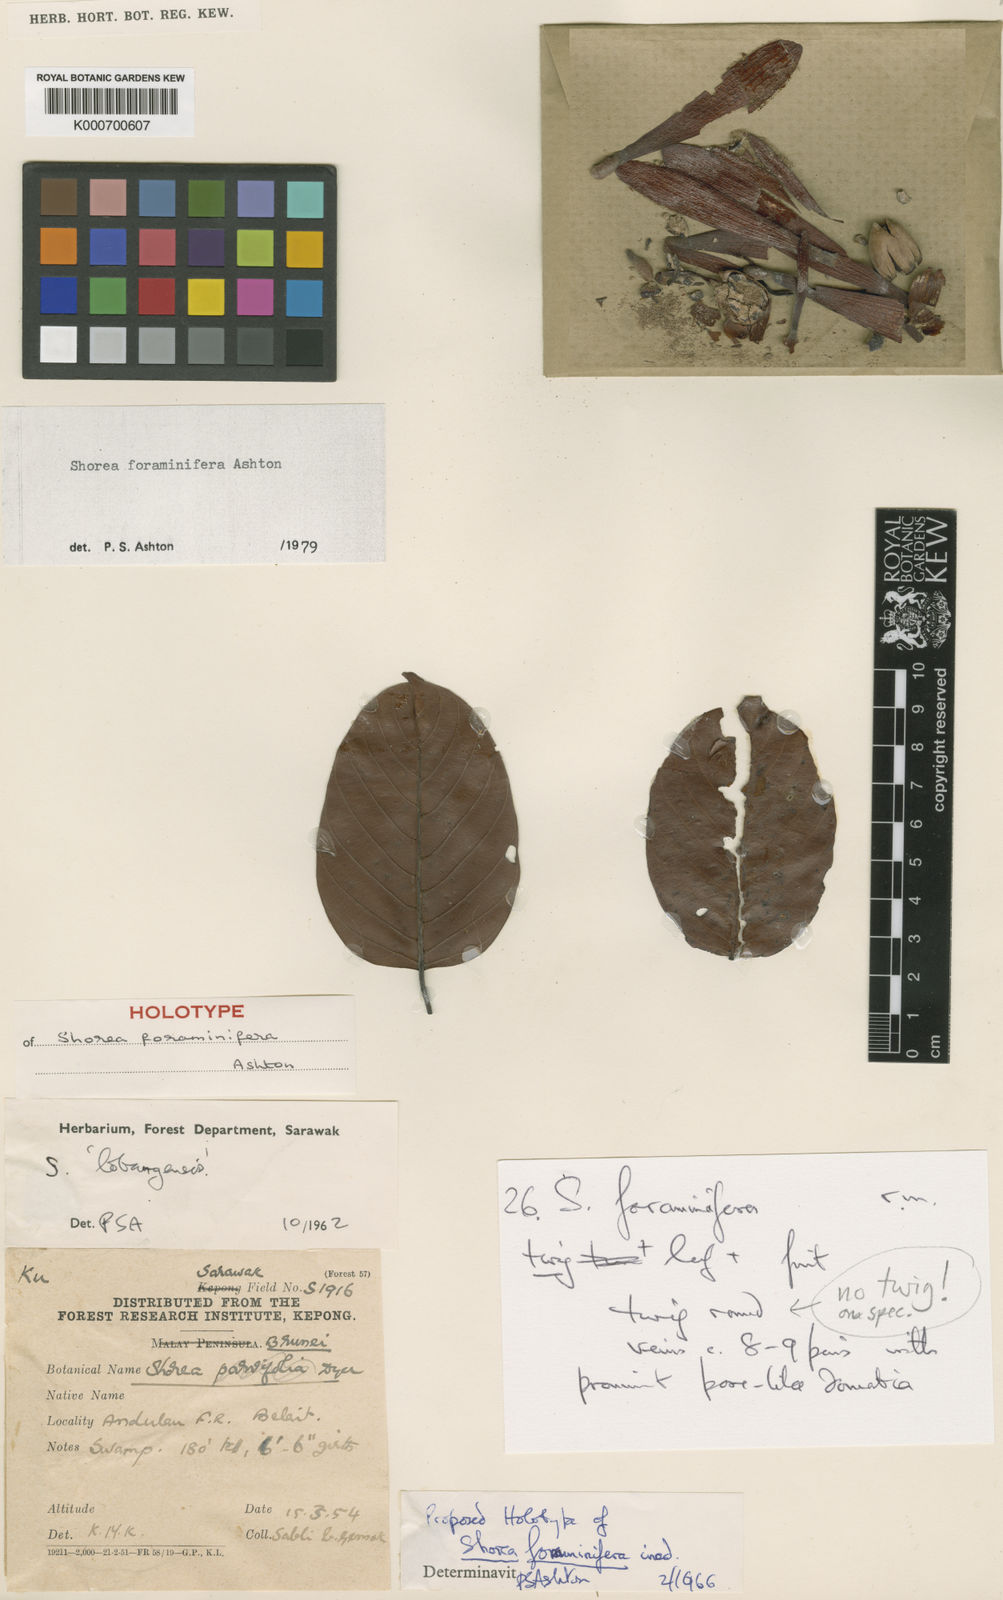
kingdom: Plantae
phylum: Tracheophyta
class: Magnoliopsida
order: Malvales
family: Dipterocarpaceae
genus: Shorea
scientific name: Shorea foraminifera
